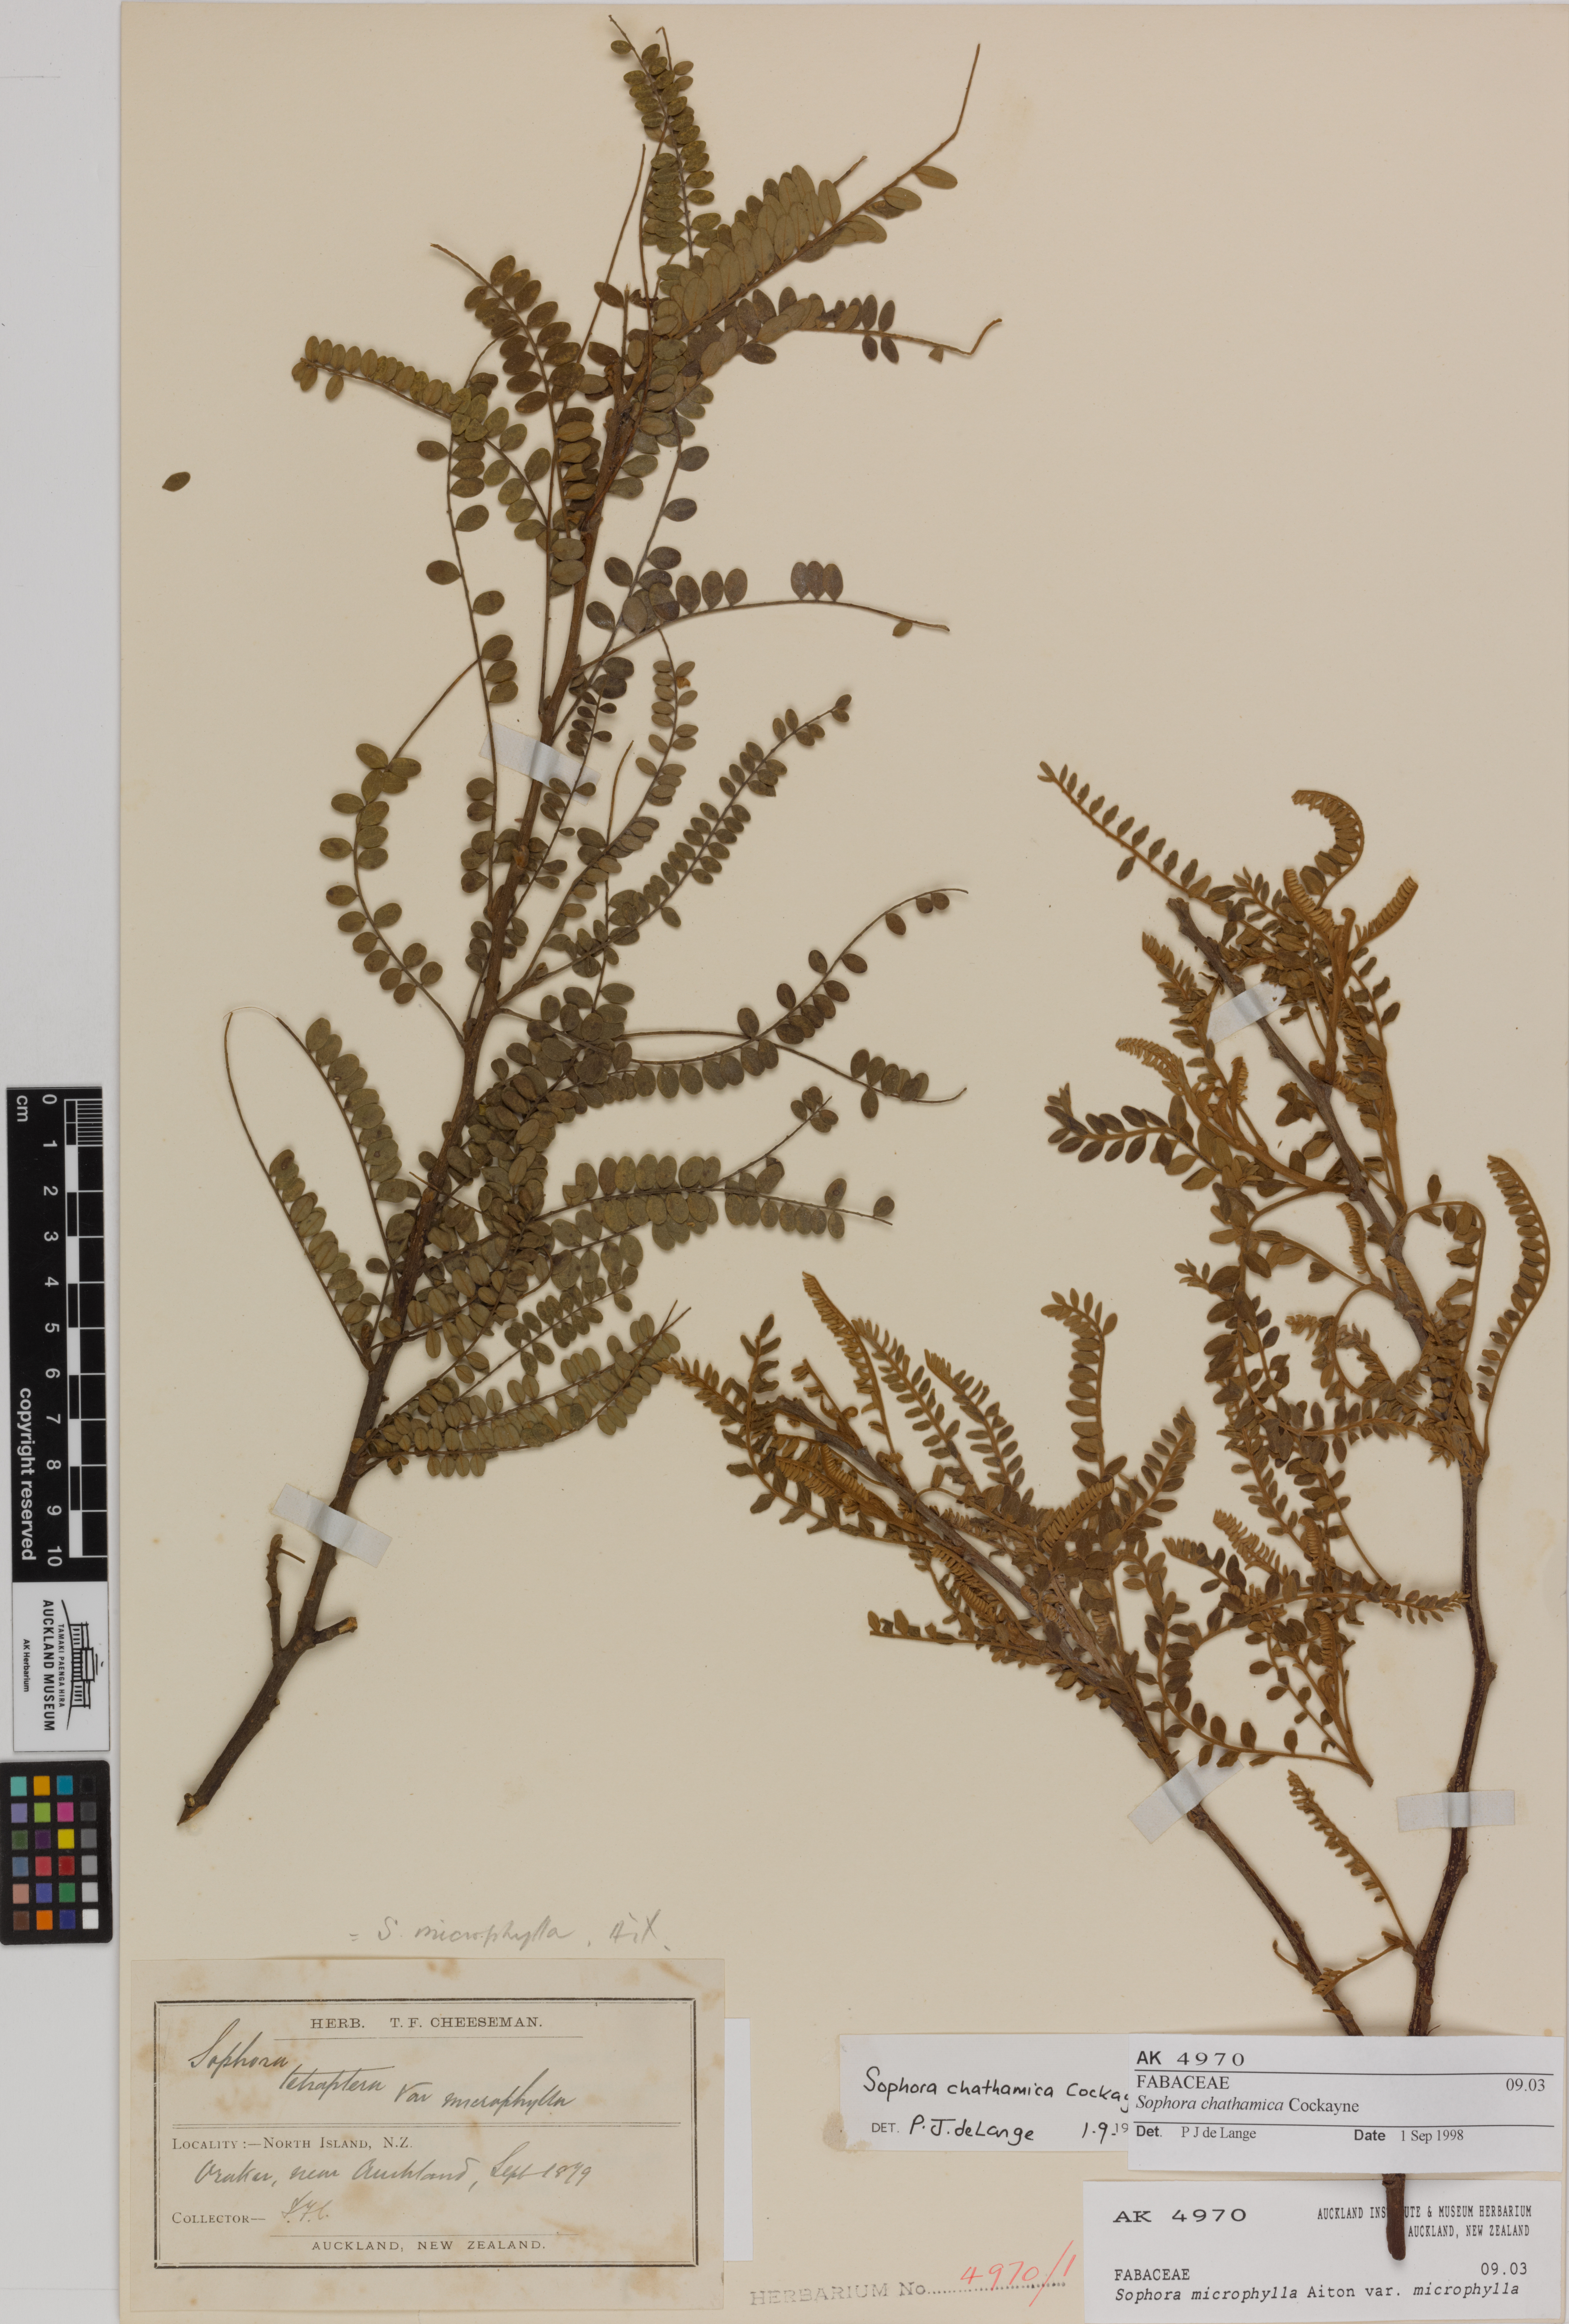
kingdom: Plantae
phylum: Tracheophyta
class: Magnoliopsida
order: Fabales
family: Fabaceae
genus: Sophora
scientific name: Sophora chathamica
